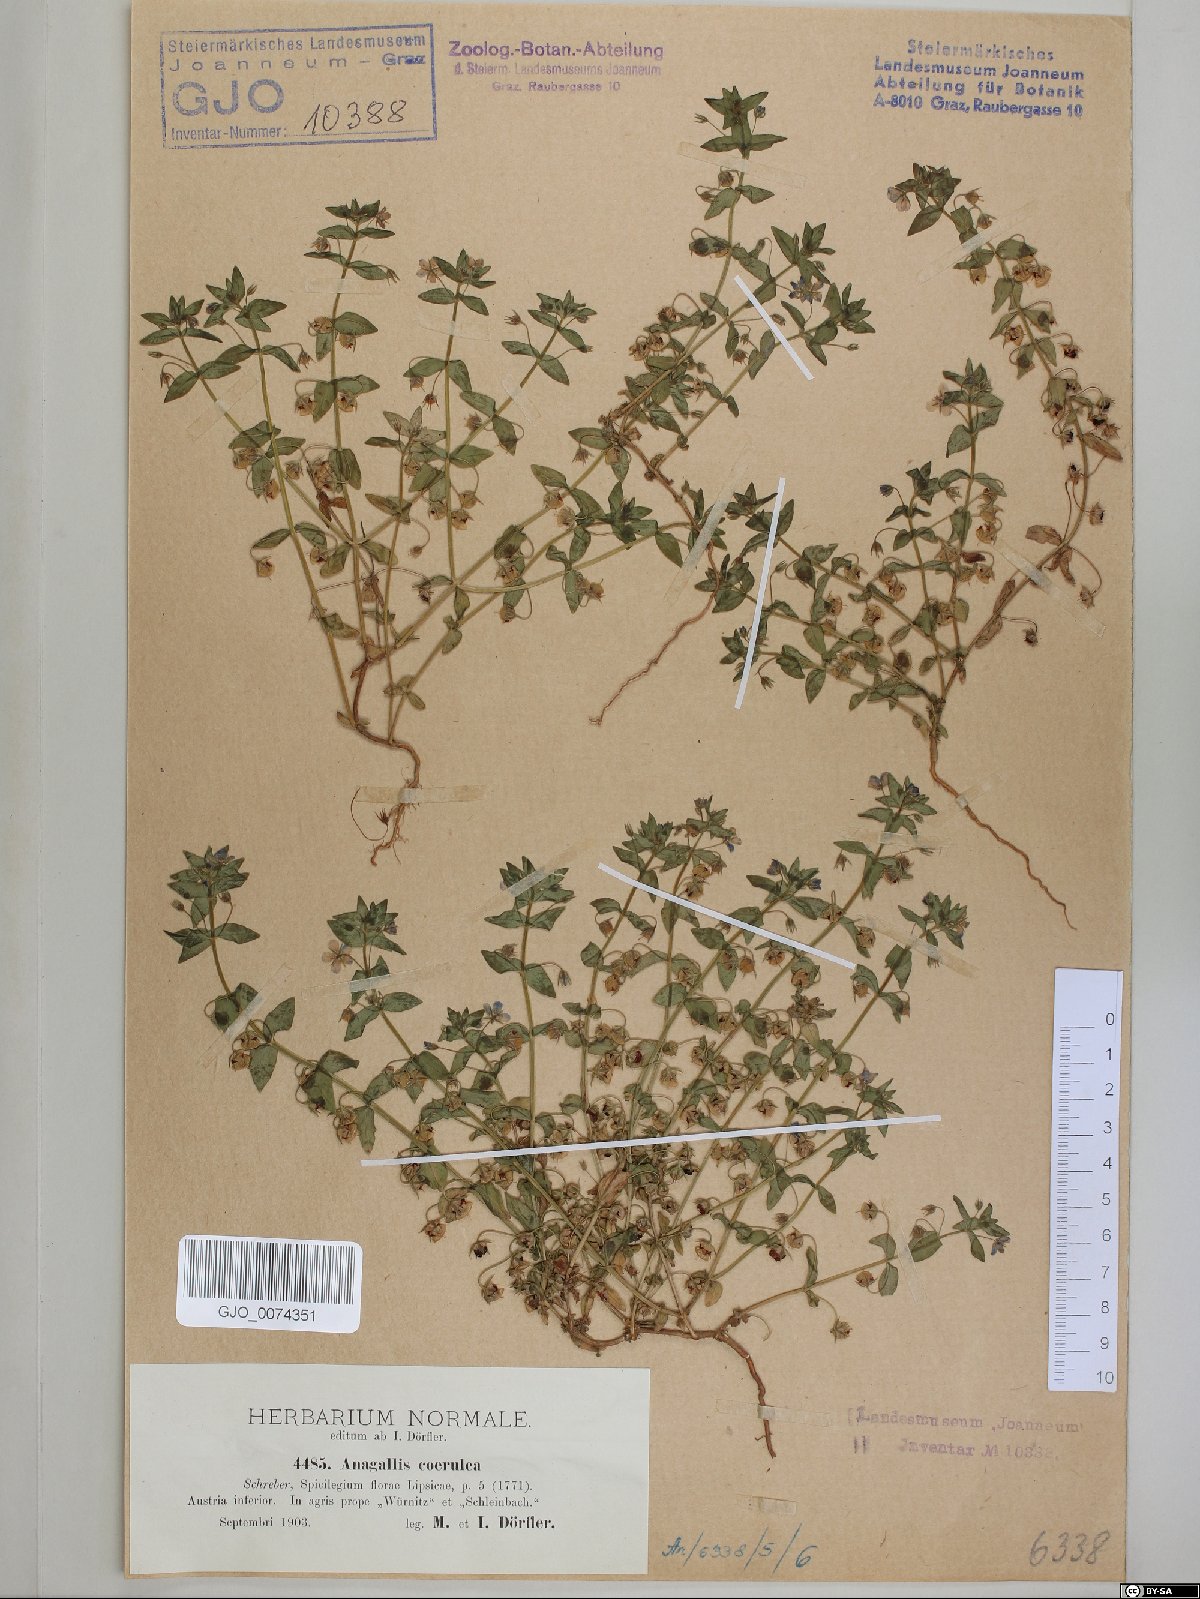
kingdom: Plantae
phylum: Tracheophyta
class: Magnoliopsida
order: Ericales
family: Primulaceae
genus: Lysimachia
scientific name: Lysimachia foemina
